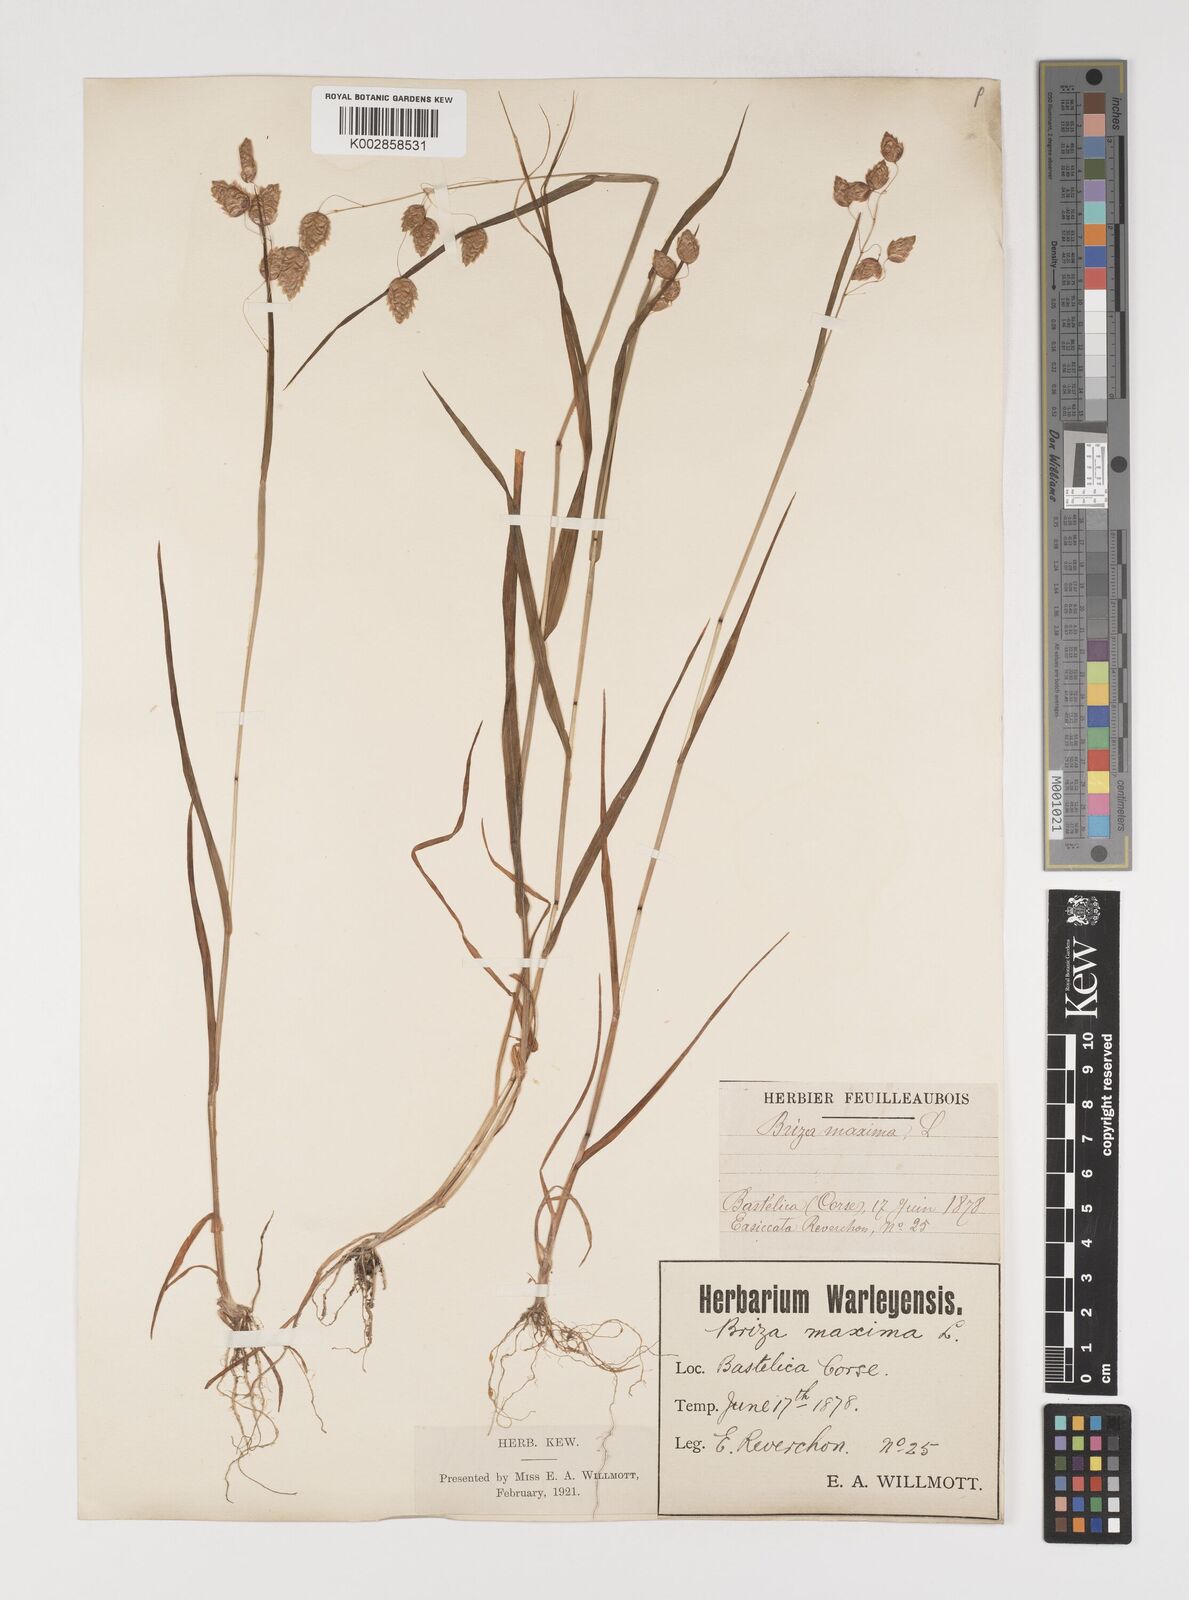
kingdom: Plantae
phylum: Tracheophyta
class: Liliopsida
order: Poales
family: Poaceae
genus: Briza
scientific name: Briza maxima
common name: Big quakinggrass
